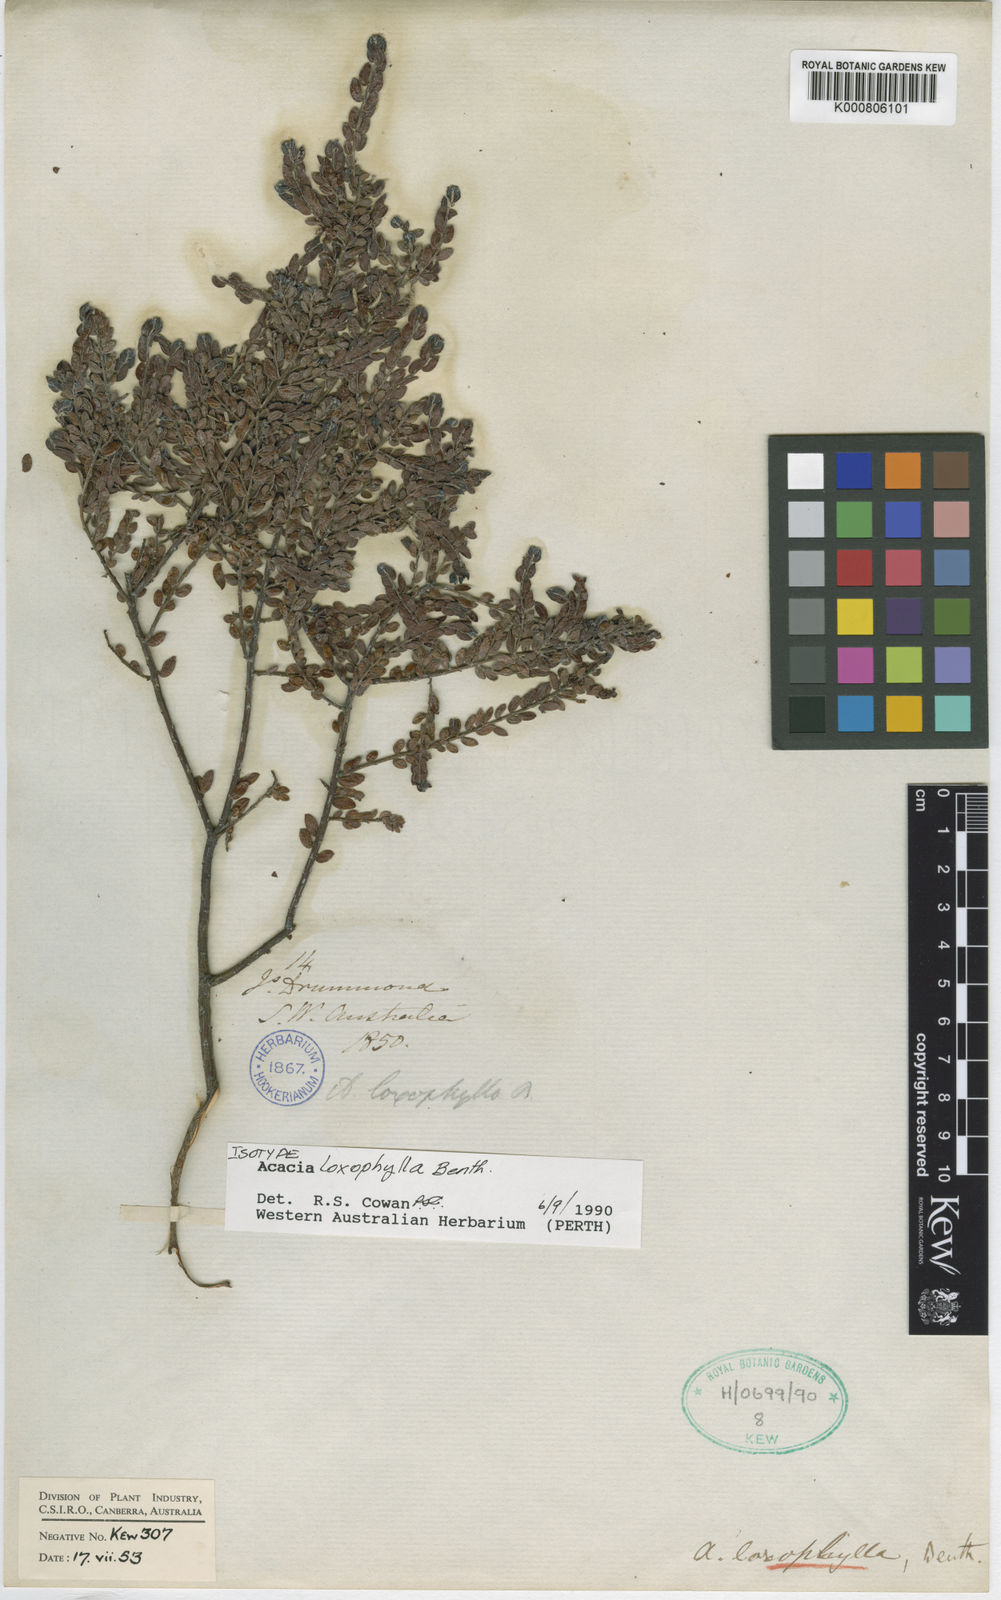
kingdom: Plantae
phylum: Tracheophyta
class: Magnoliopsida
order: Fabales
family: Fabaceae
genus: Acacia
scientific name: Acacia loxophylla
